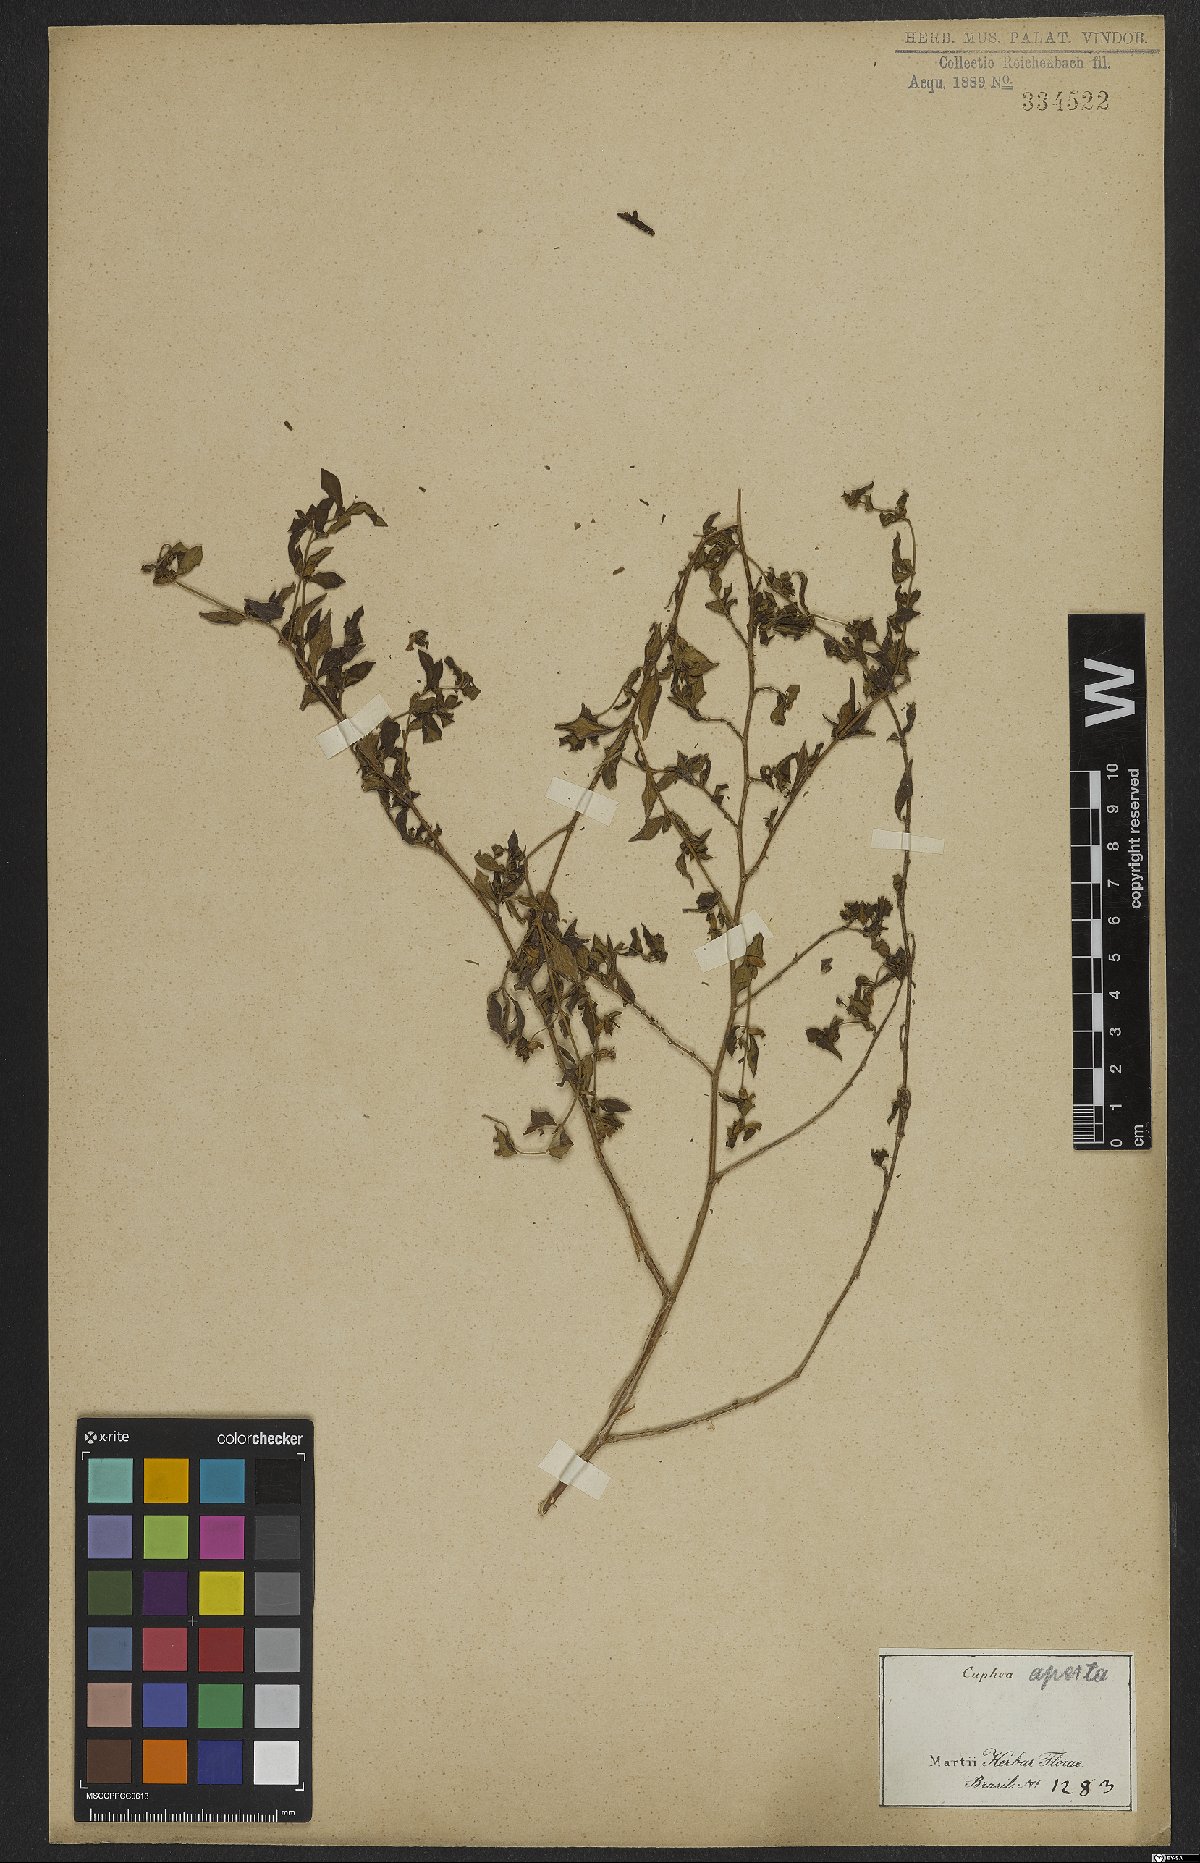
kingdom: Plantae
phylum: Tracheophyta
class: Magnoliopsida
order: Myrtales
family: Lythraceae
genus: Cuphea
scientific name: Cuphea aperta
